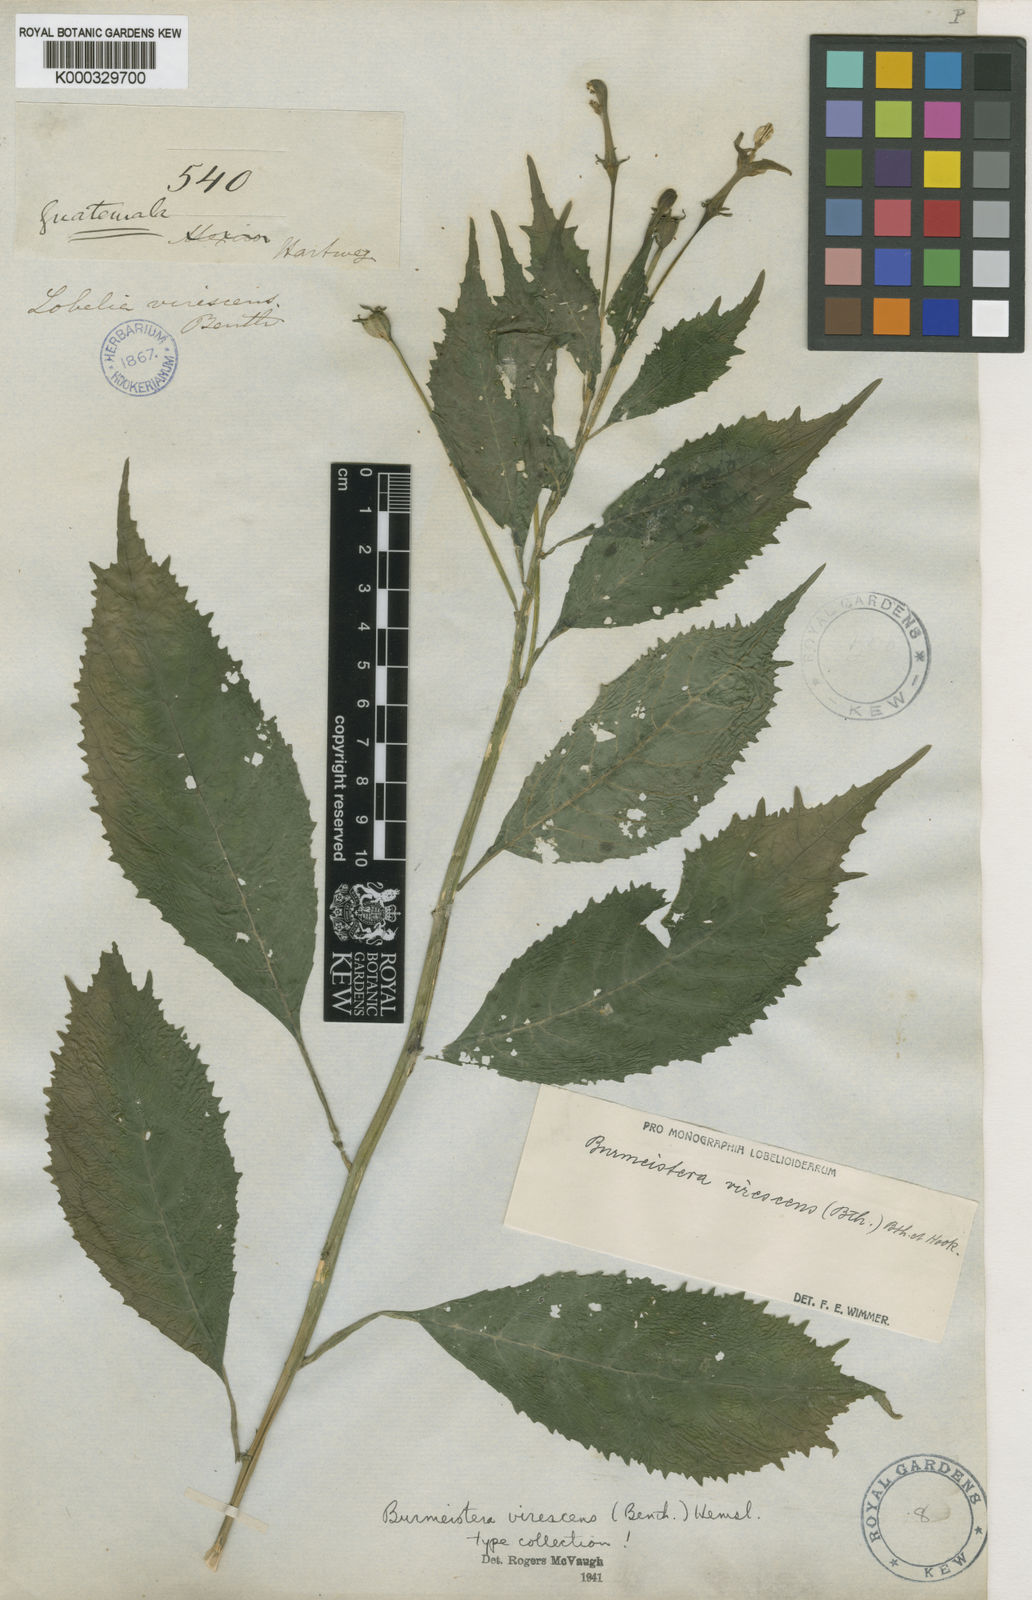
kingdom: Plantae
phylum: Tracheophyta
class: Magnoliopsida
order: Asterales
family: Campanulaceae
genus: Burmeistera
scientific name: Burmeistera
